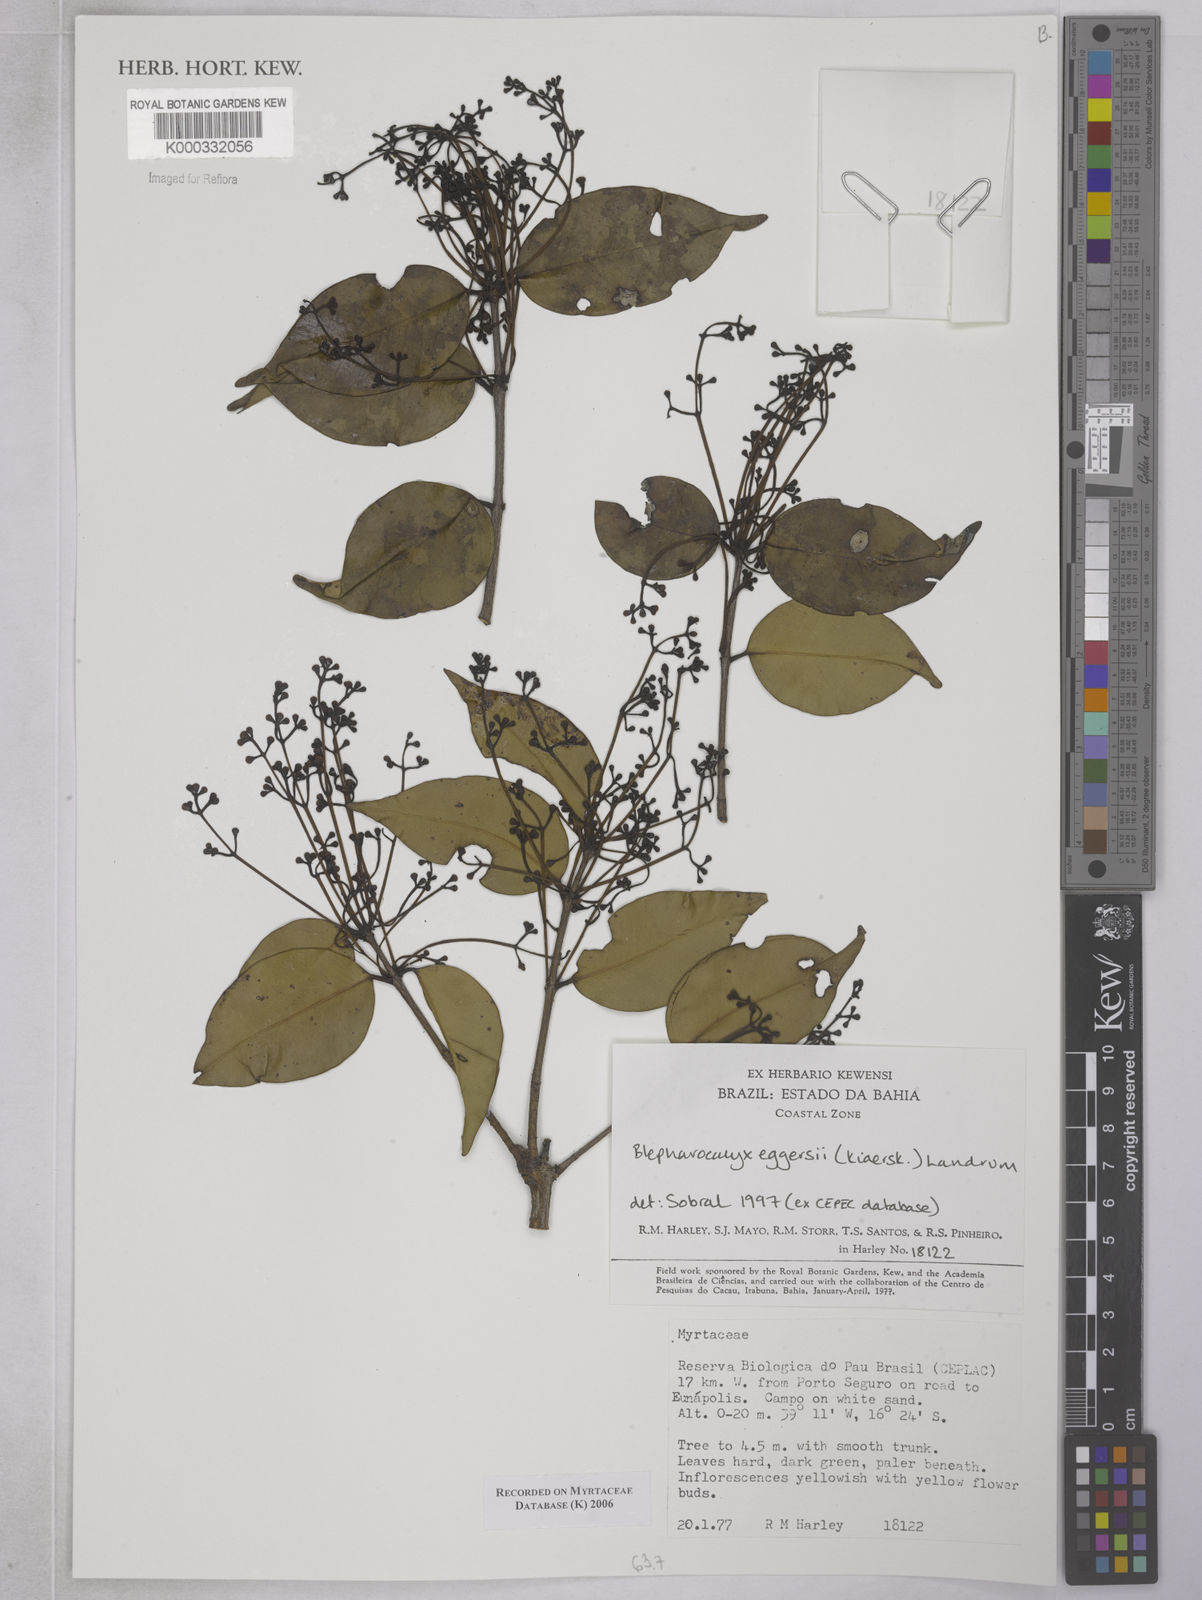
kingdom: Plantae
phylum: Tracheophyta
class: Magnoliopsida
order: Myrtales
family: Myrtaceae
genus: Marlierea
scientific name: Marlierea
